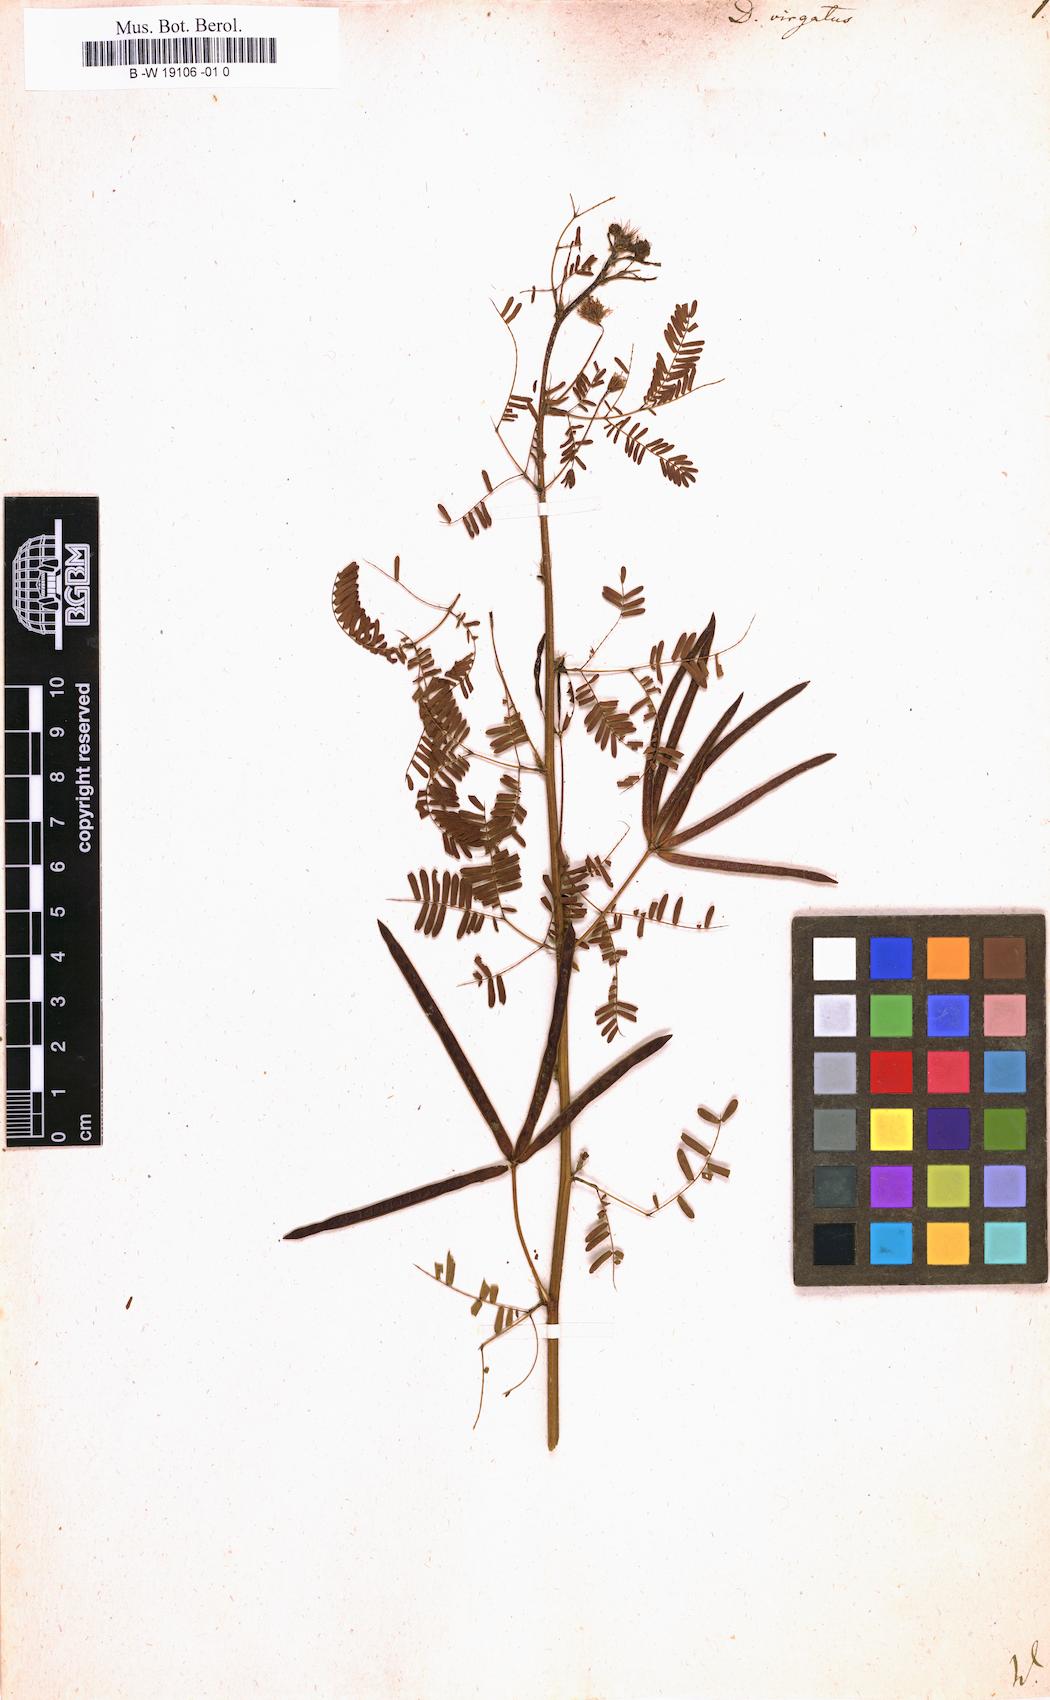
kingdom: Plantae
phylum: Tracheophyta
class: Magnoliopsida
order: Fabales
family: Fabaceae
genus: Desmanthus
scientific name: Desmanthus virgatus
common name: Wild tantan
